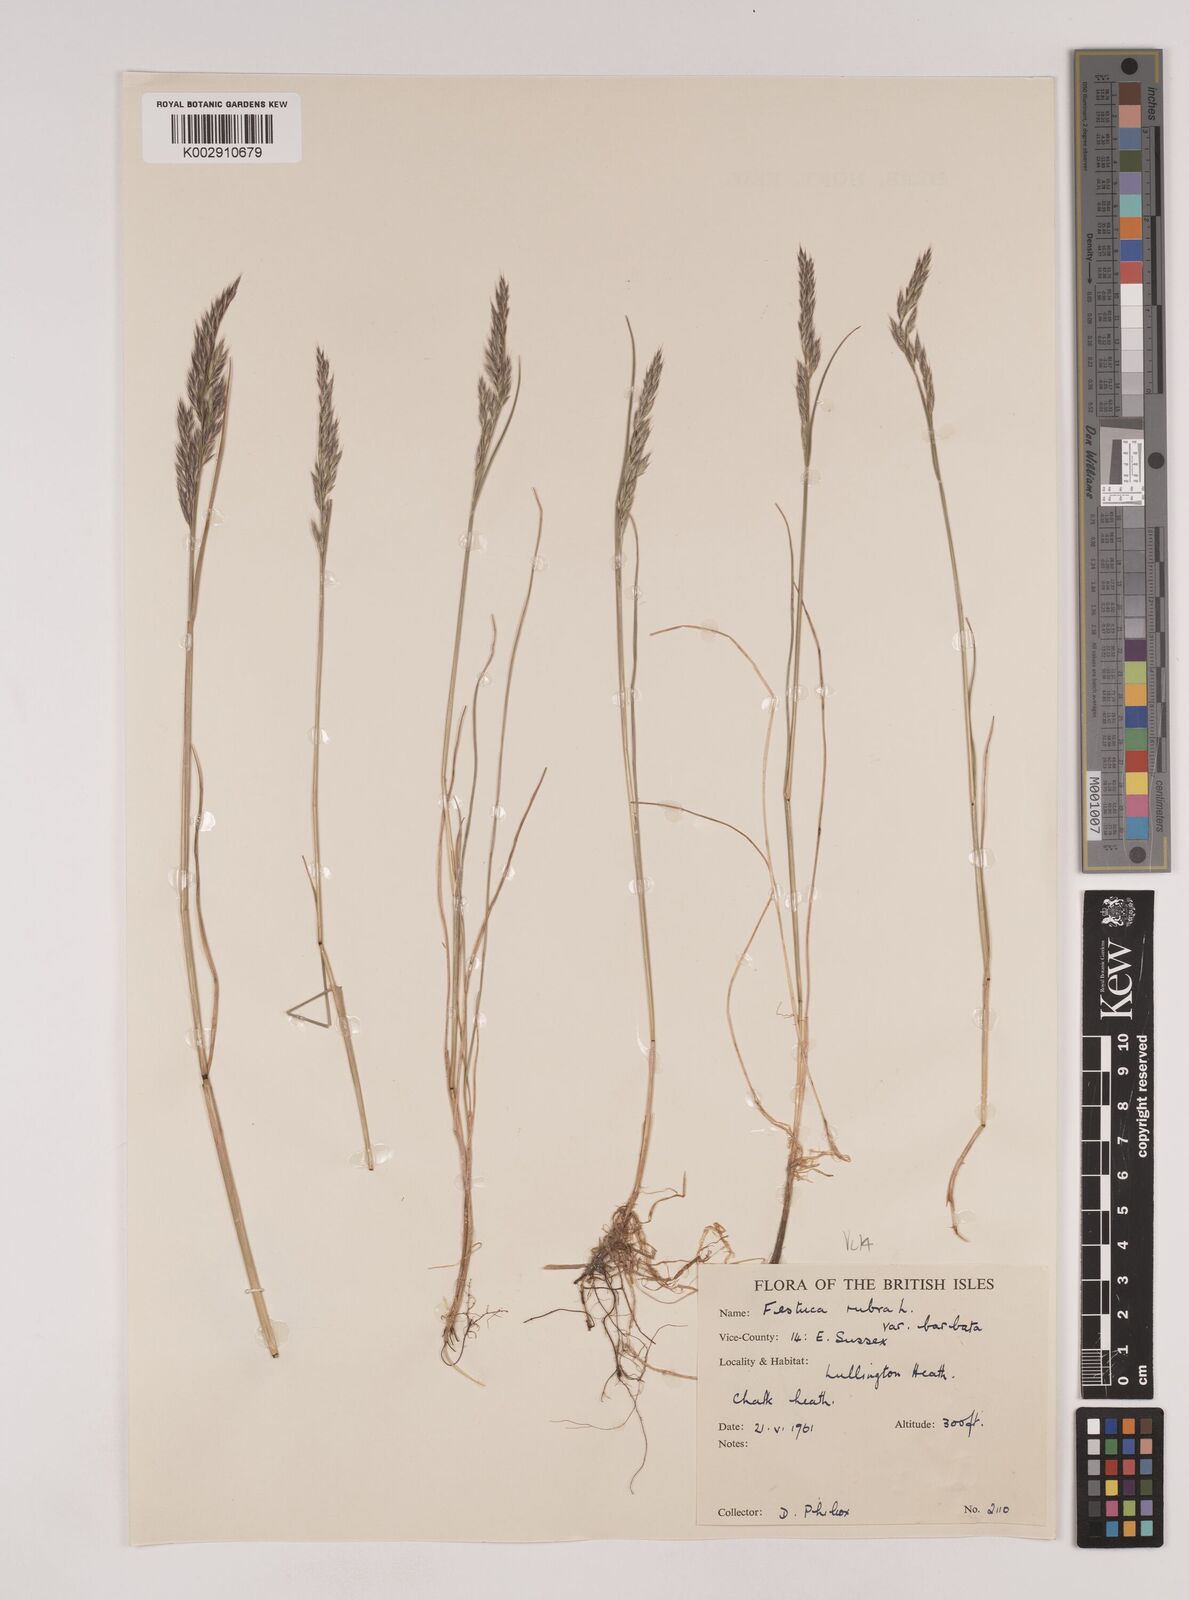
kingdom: Plantae
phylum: Tracheophyta
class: Liliopsida
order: Poales
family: Poaceae
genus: Festuca
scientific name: Festuca rubra
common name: Red fescue
